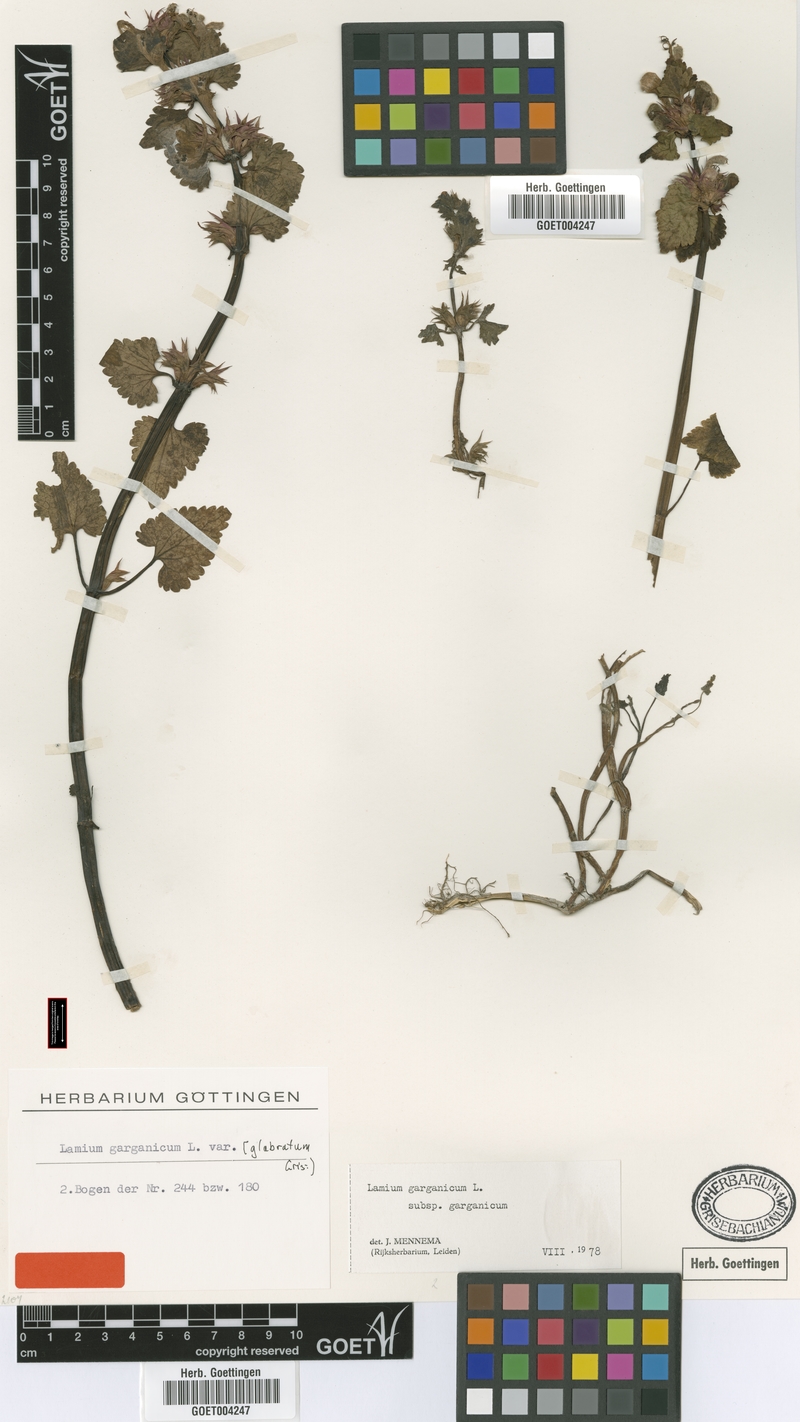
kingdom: Plantae
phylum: Tracheophyta
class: Magnoliopsida
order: Lamiales
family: Lamiaceae
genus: Lamium
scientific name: Lamium garganicum
